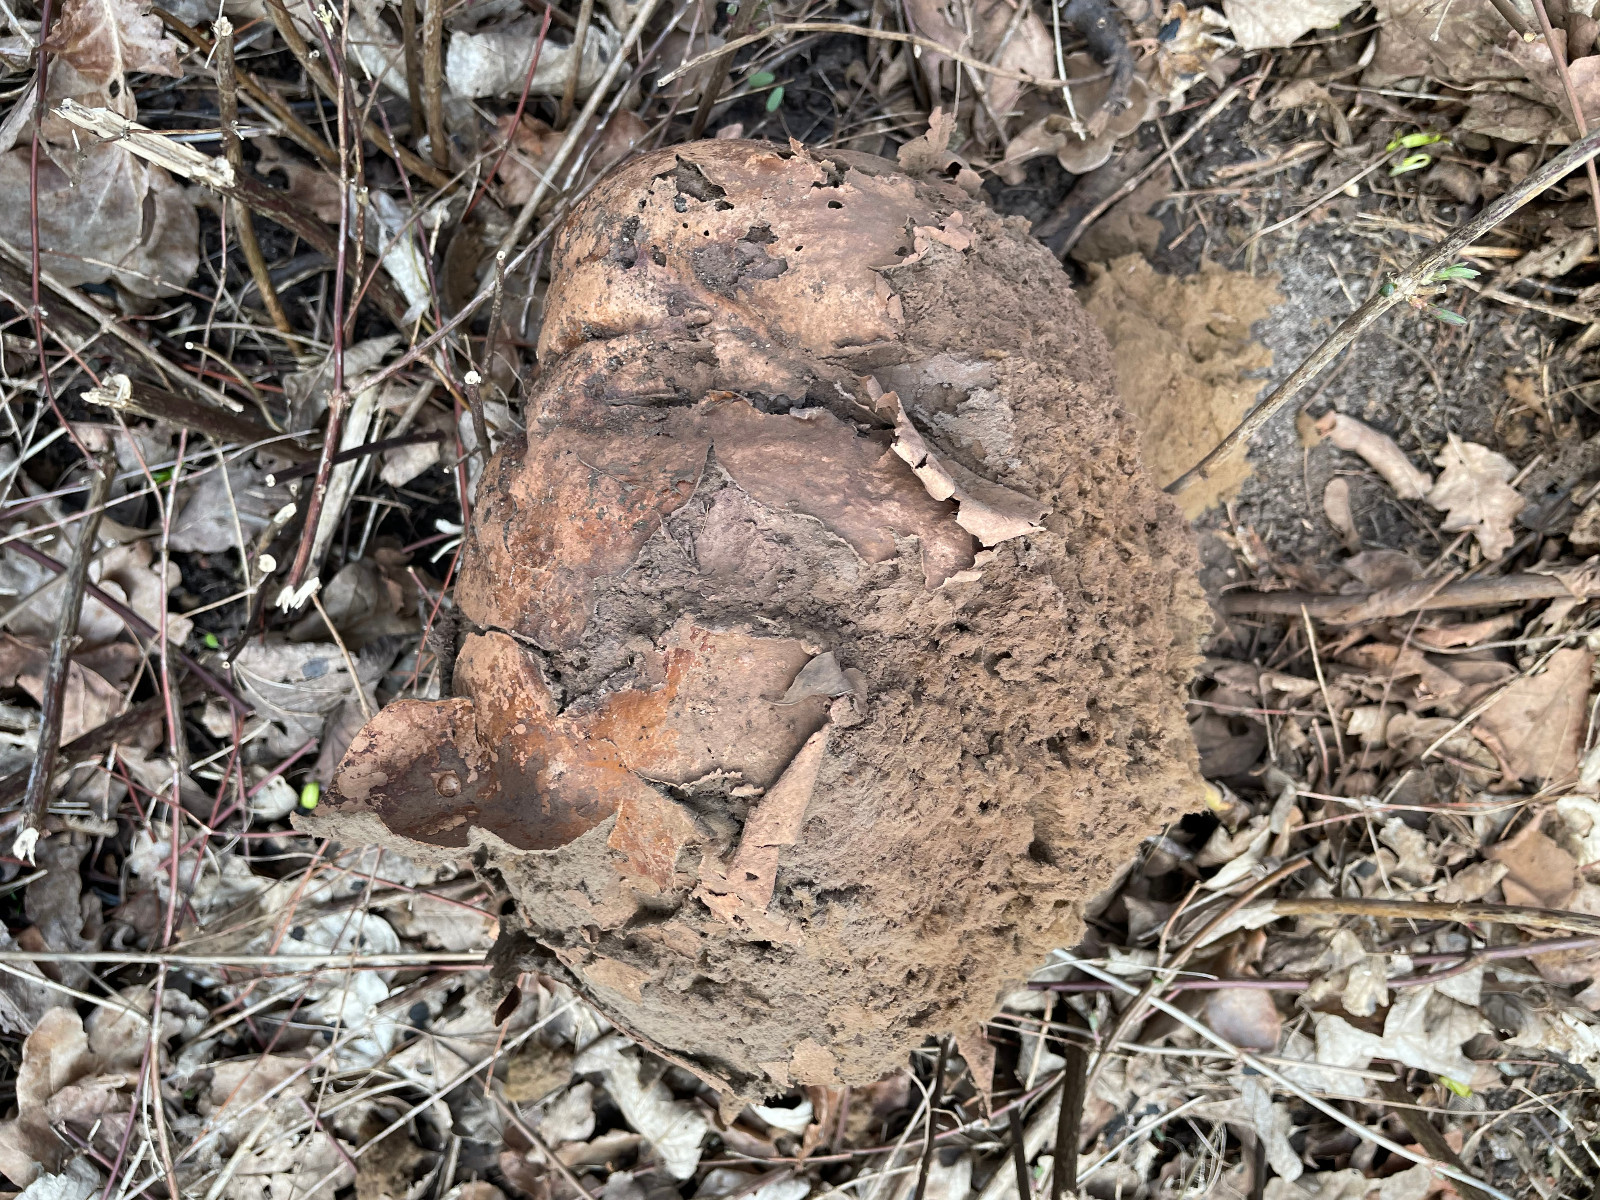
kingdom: Fungi
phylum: Basidiomycota
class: Agaricomycetes
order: Agaricales
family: Lycoperdaceae
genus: Calvatia
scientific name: Calvatia gigantea
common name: kæmpestøvbold
